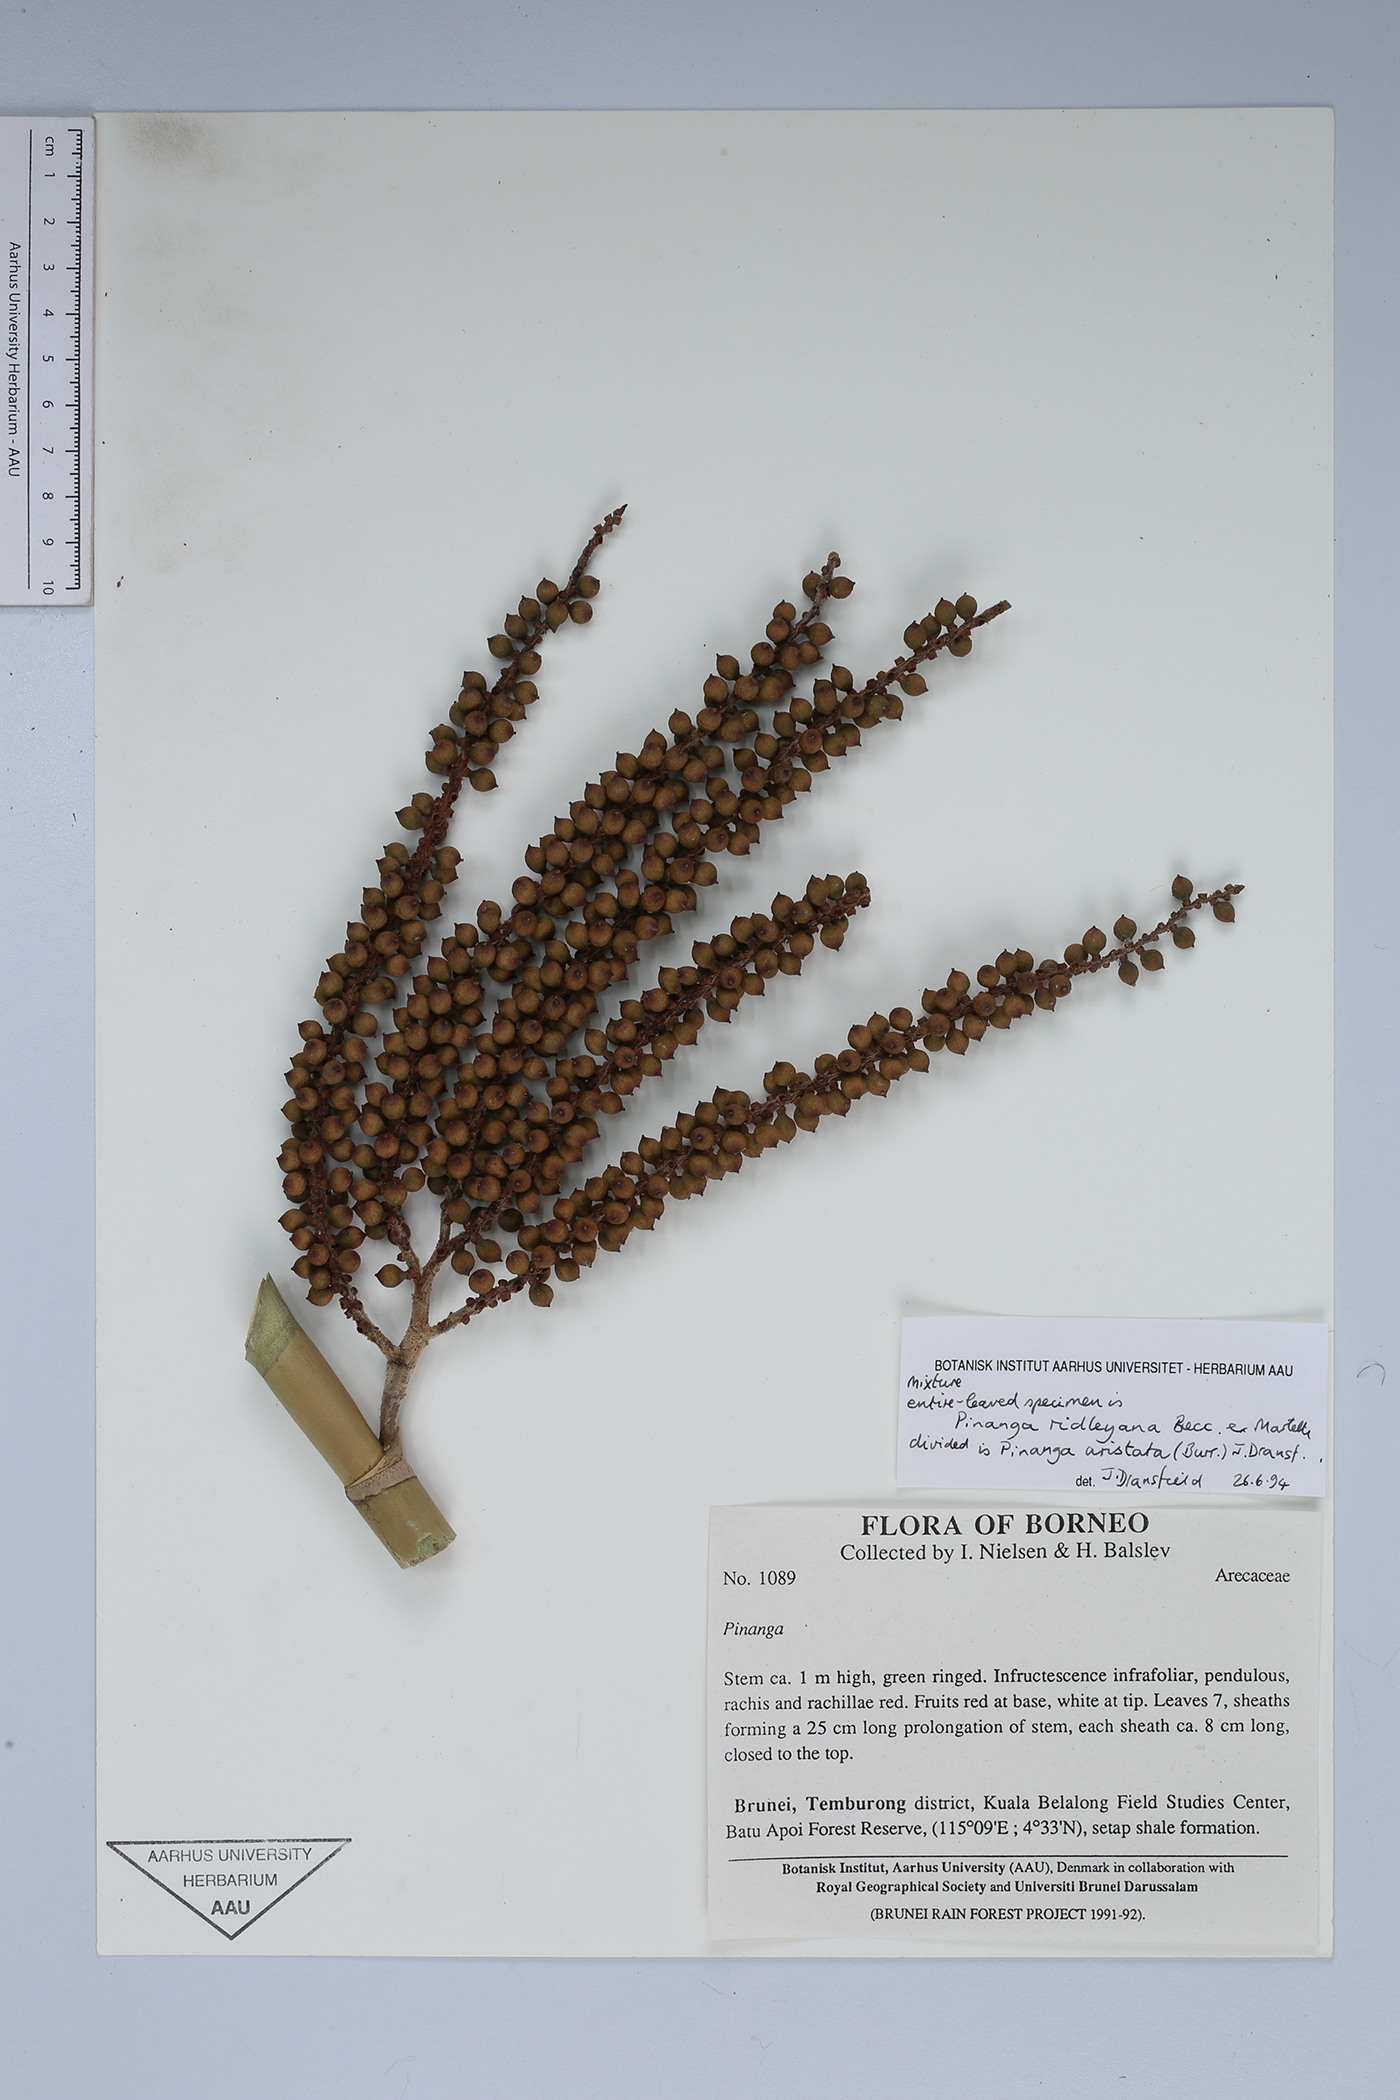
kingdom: Plantae
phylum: Tracheophyta
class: Liliopsida
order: Arecales
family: Arecaceae
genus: Pinanga
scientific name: Pinanga
